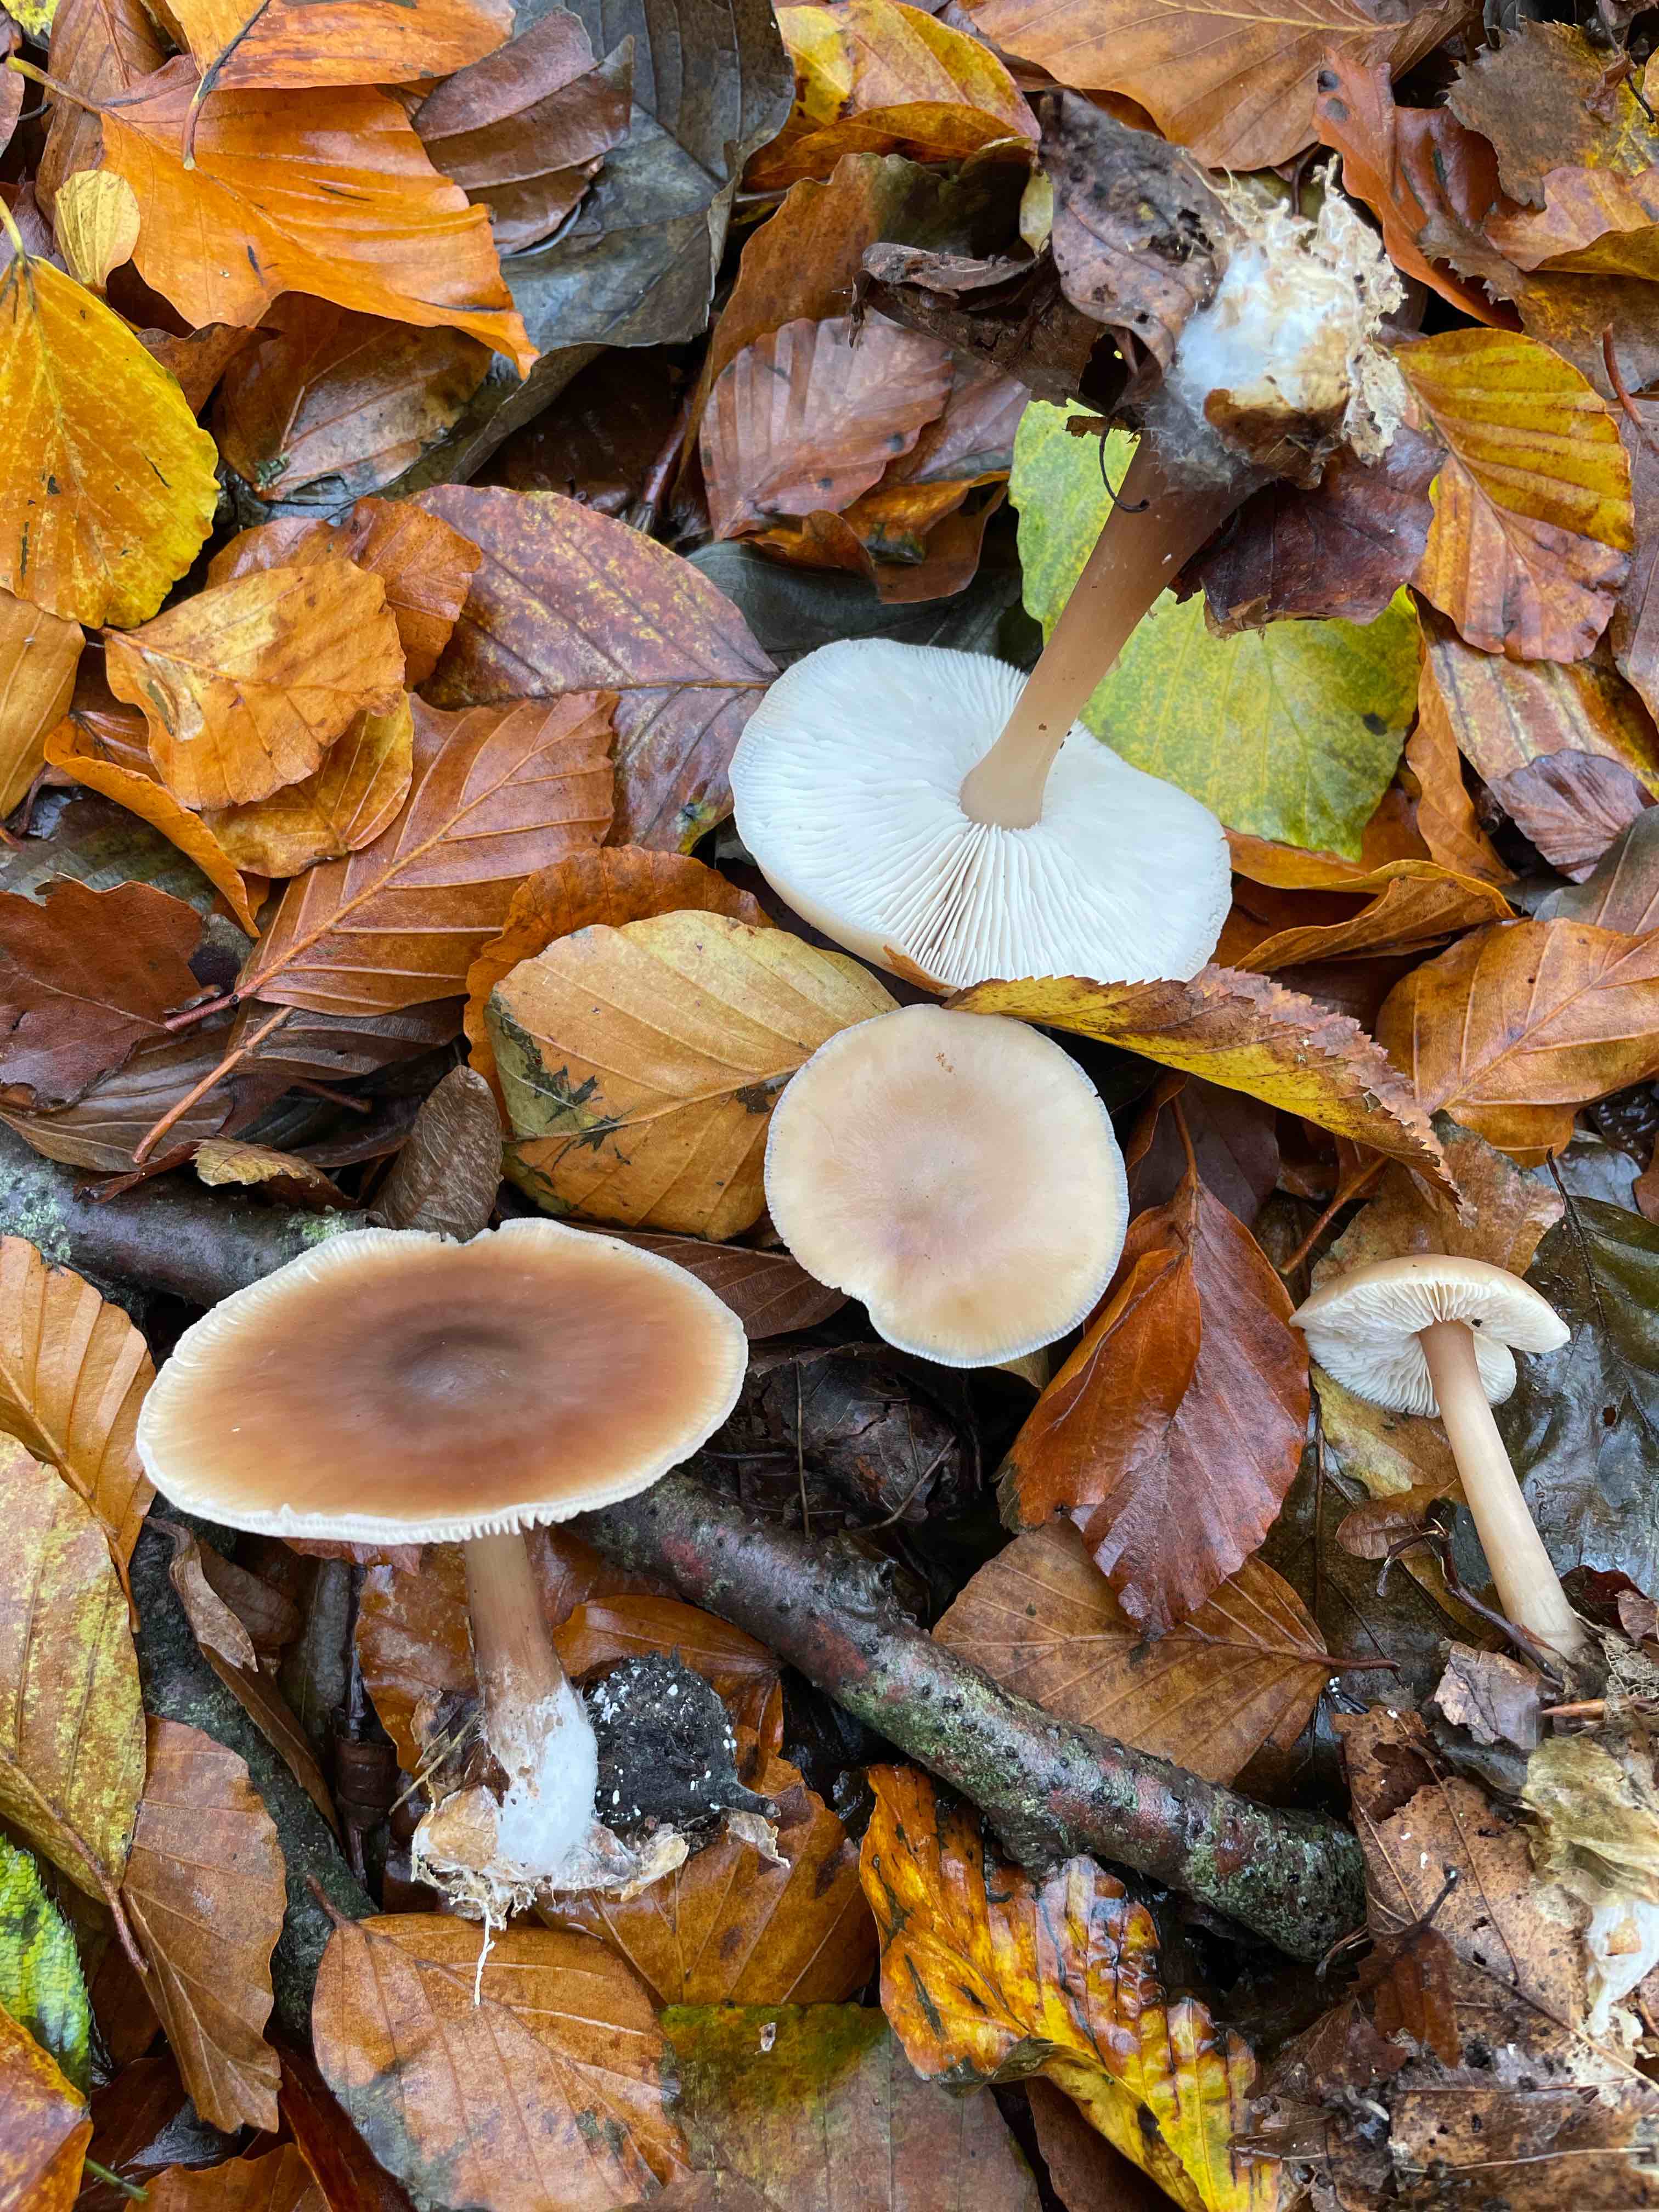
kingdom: Fungi
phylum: Basidiomycota
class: Agaricomycetes
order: Agaricales
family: Omphalotaceae
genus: Rhodocollybia
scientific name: Rhodocollybia asema
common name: horngrå fladhat
